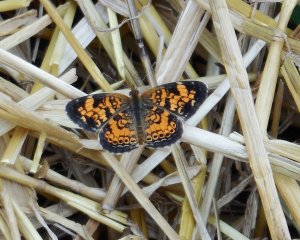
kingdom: Animalia
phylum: Arthropoda
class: Insecta
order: Lepidoptera
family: Nymphalidae
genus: Phyciodes
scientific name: Phyciodes tharos
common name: Pearl Crescent
